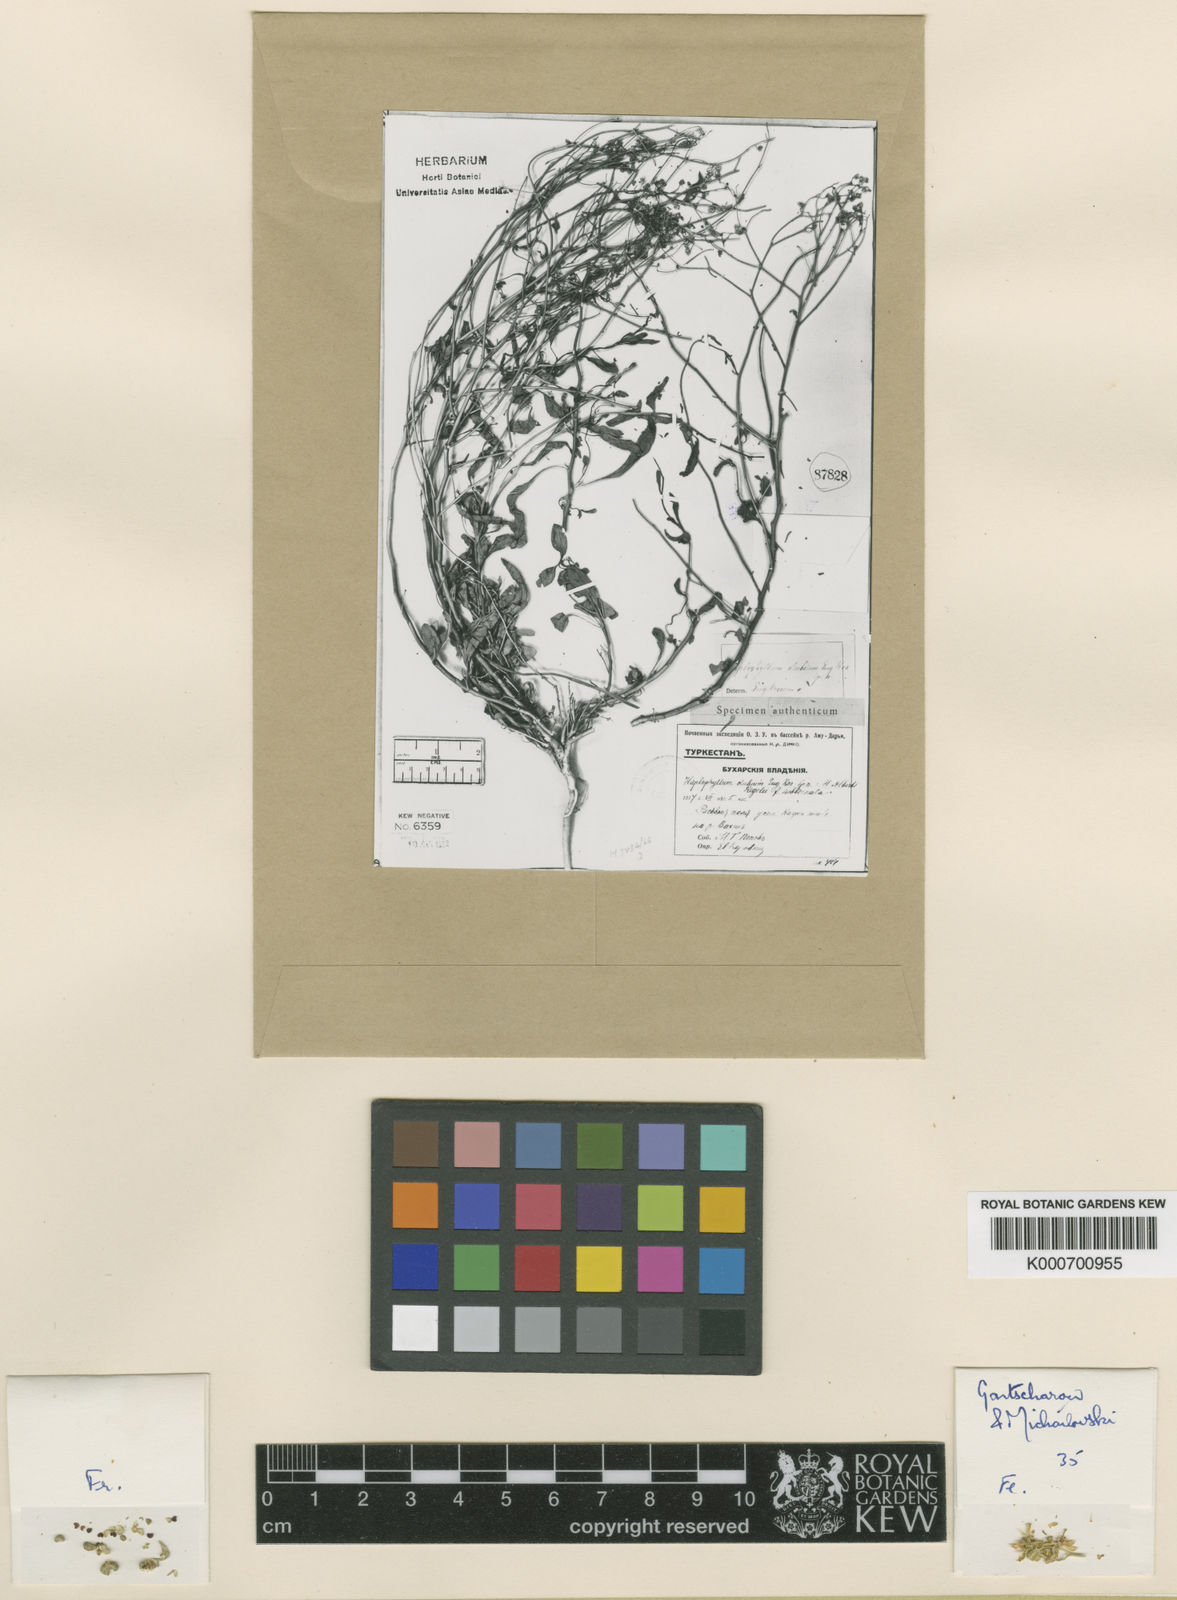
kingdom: Plantae
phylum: Tracheophyta
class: Magnoliopsida
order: Sapindales
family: Rutaceae
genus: Haplophyllum
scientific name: Haplophyllum dubium
